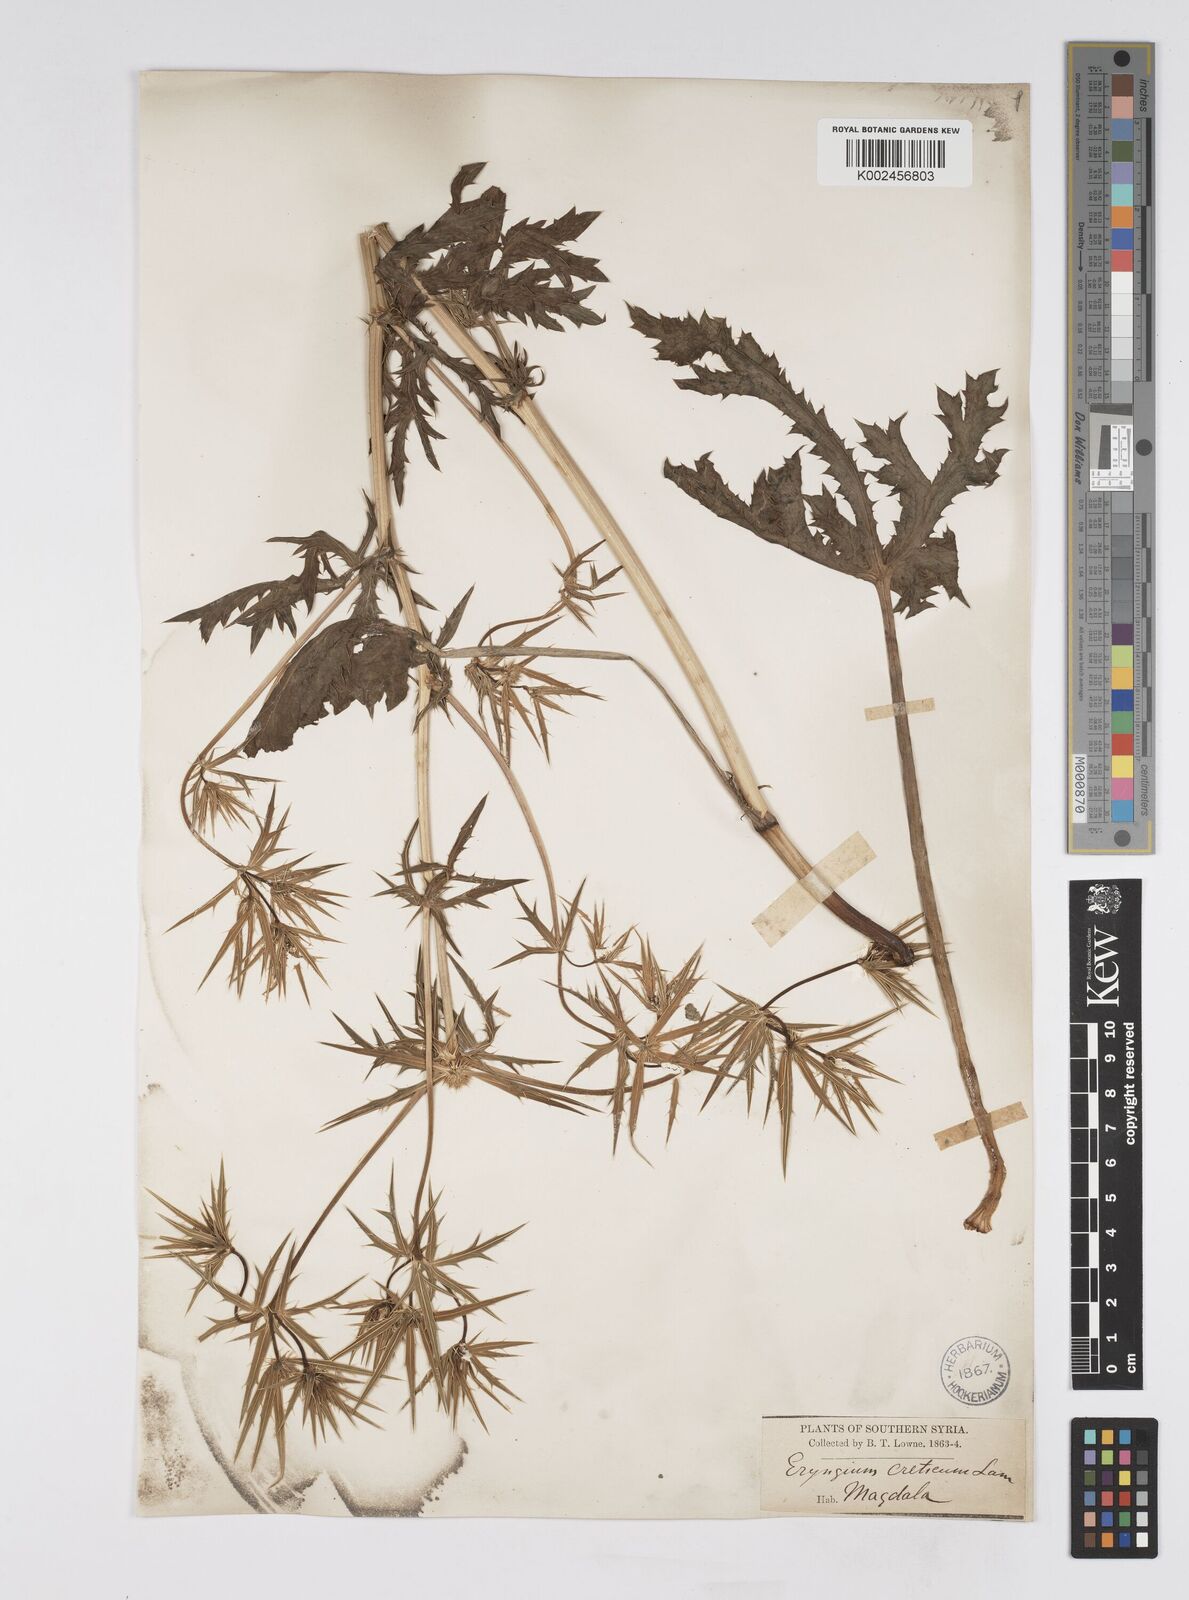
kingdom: Plantae
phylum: Tracheophyta
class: Magnoliopsida
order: Apiales
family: Apiaceae
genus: Eryngium
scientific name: Eryngium creticum
